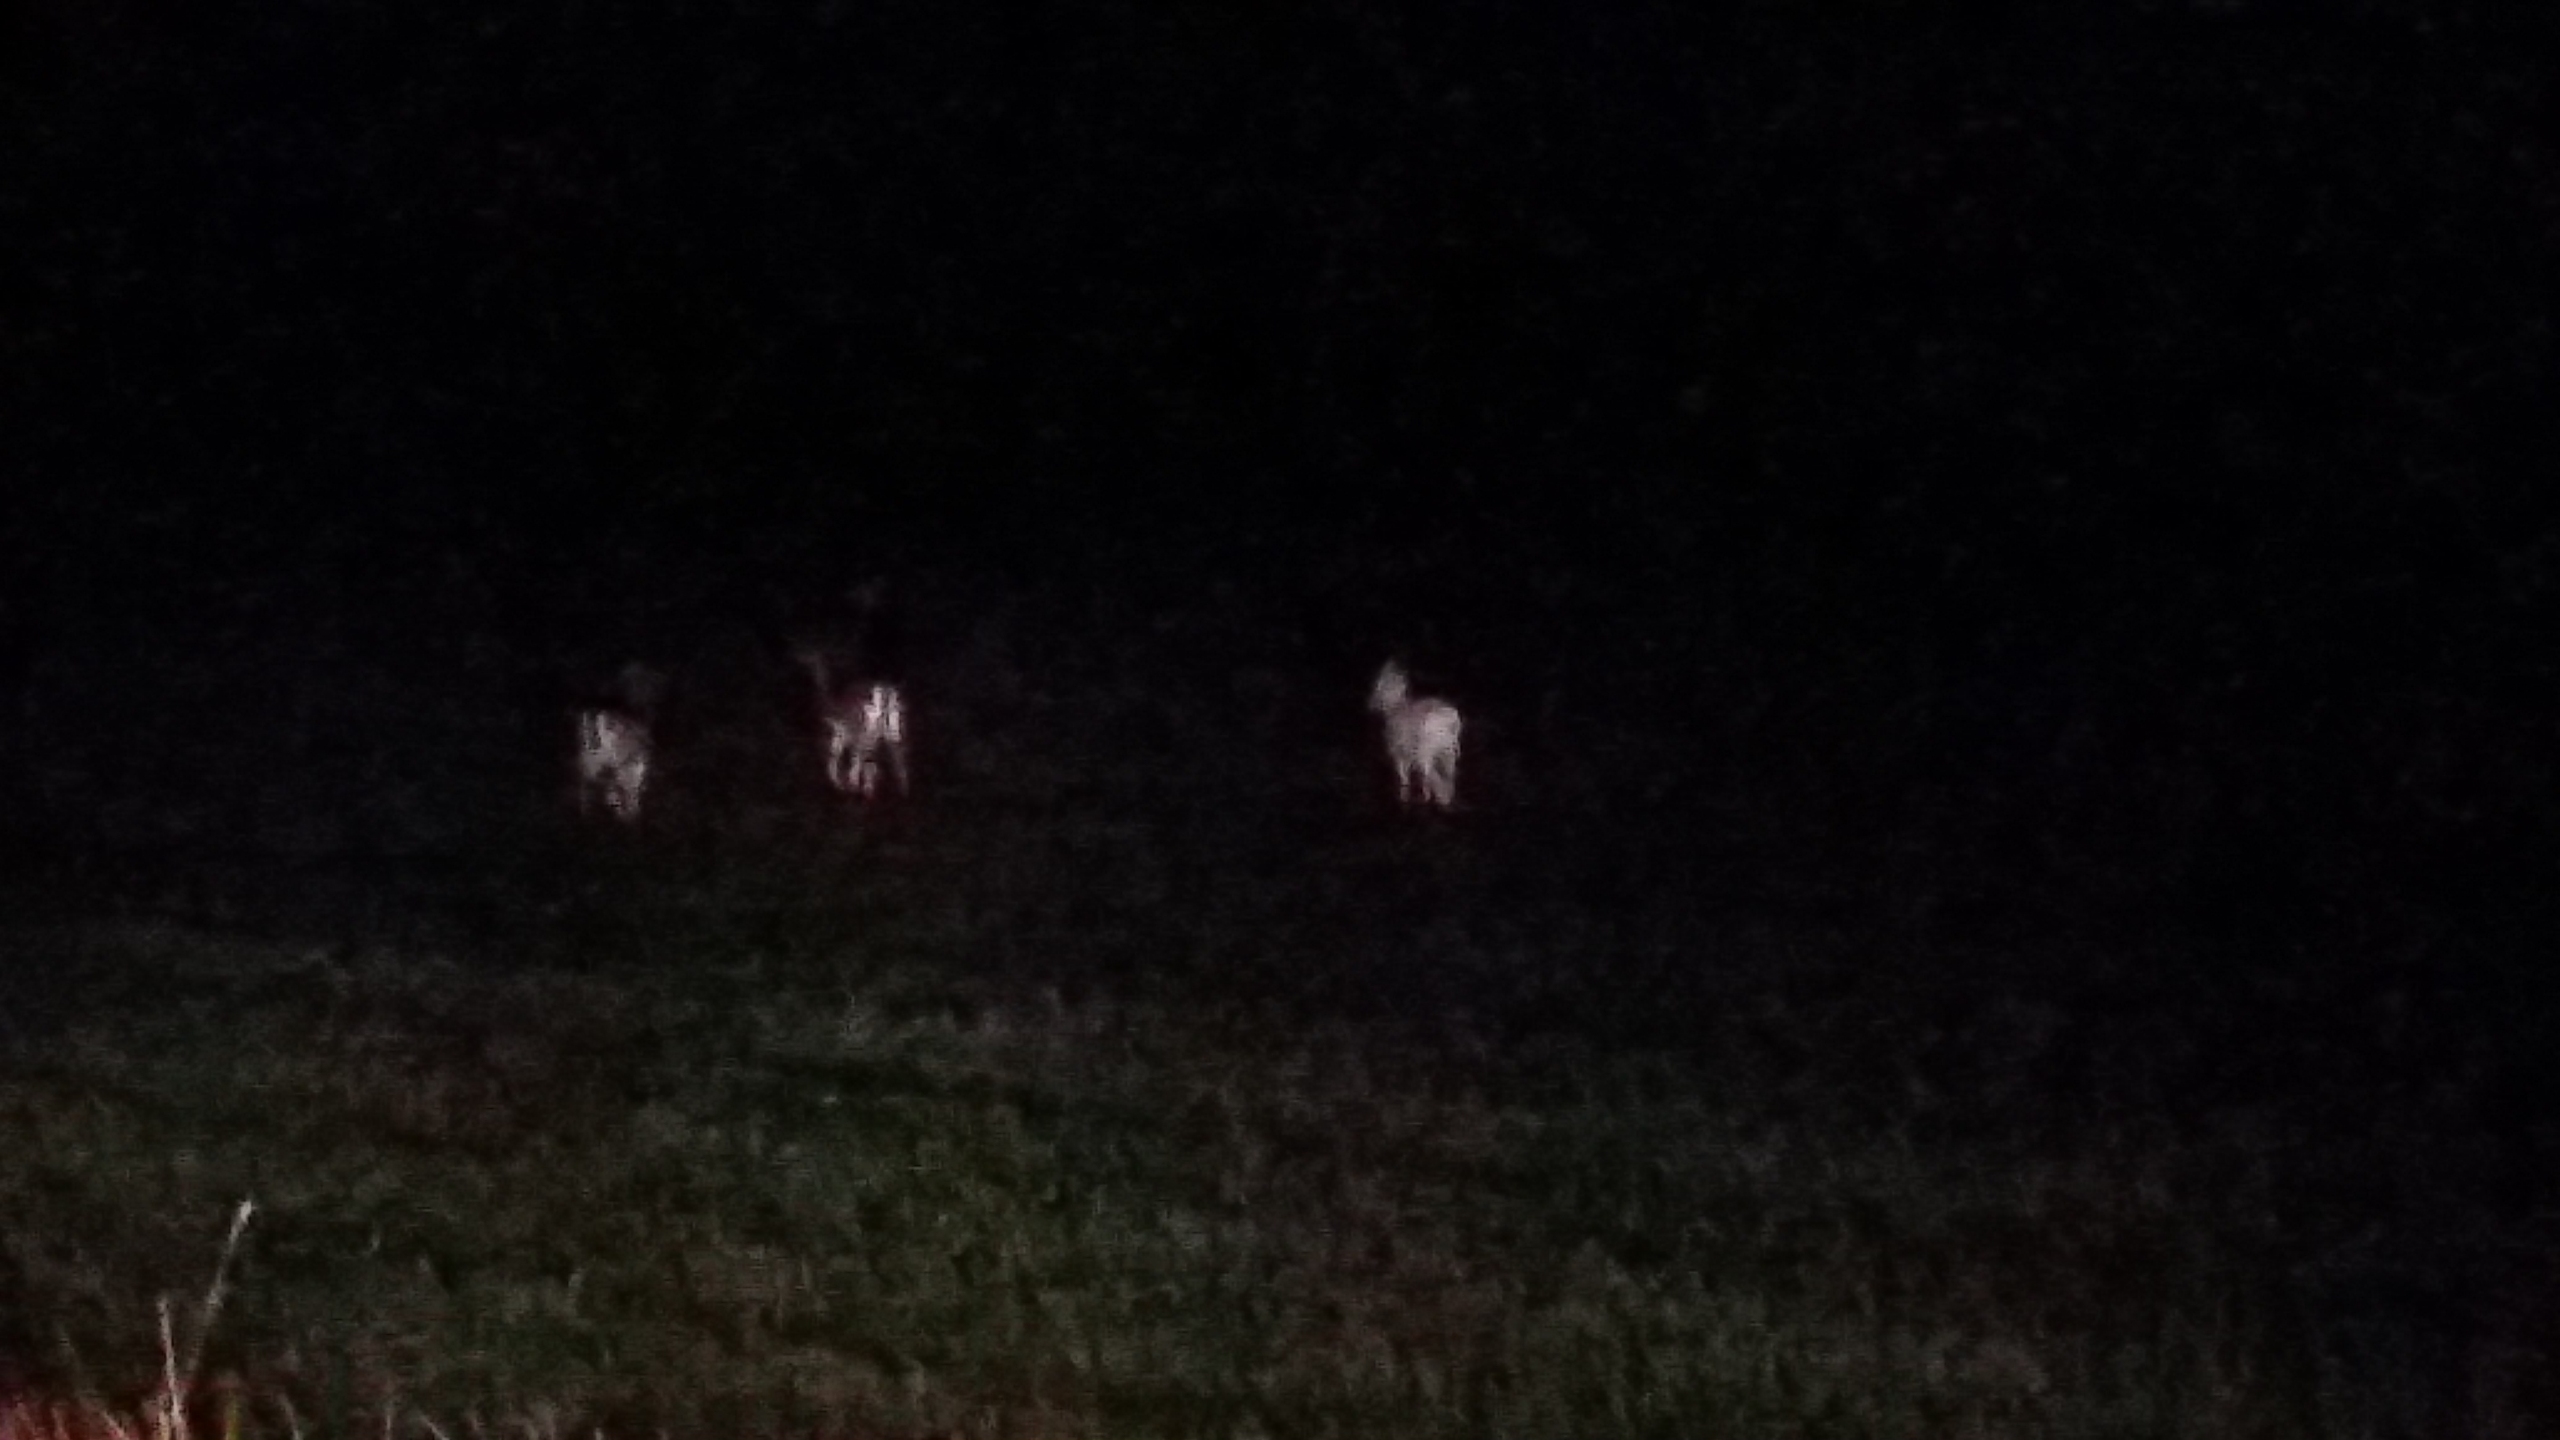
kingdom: Animalia
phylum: Chordata
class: Mammalia
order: Artiodactyla
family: Cervidae
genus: Dama
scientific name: Dama dama
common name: Dådyr
